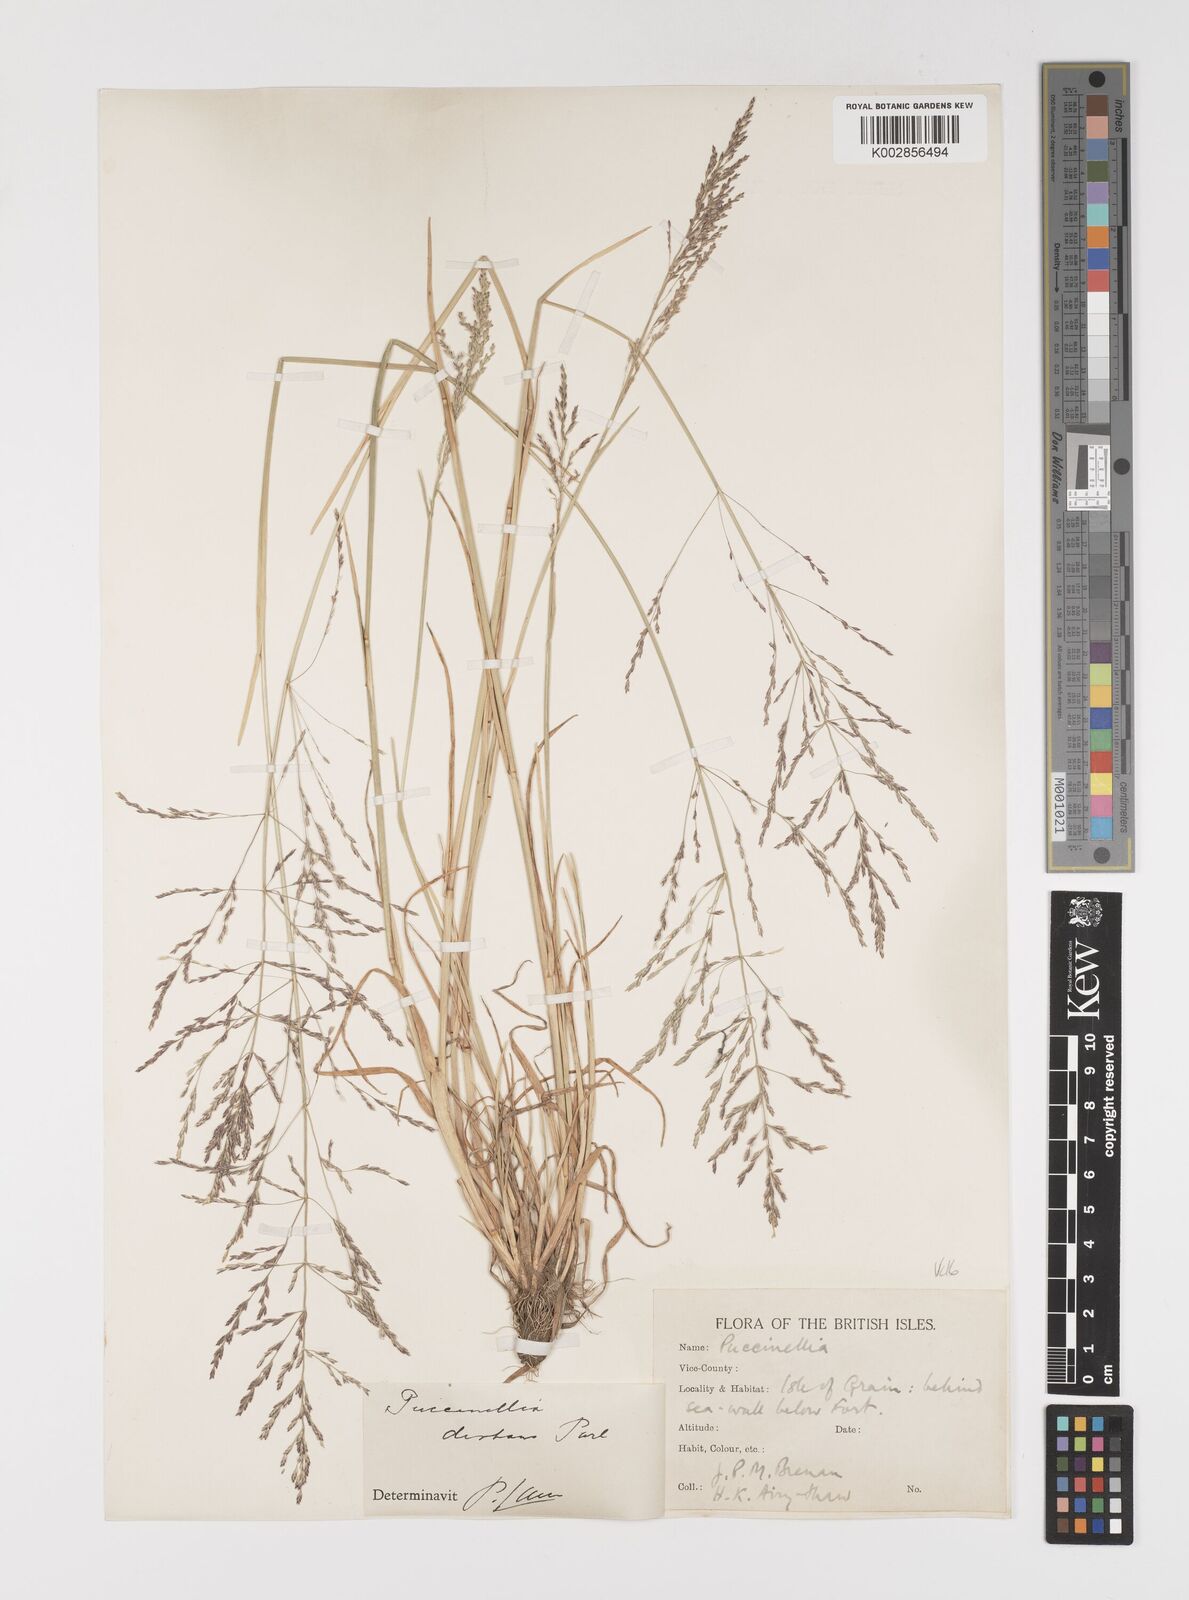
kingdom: Plantae
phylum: Tracheophyta
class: Liliopsida
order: Poales
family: Poaceae
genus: Puccinellia
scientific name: Puccinellia distans
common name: Weeping alkaligrass
